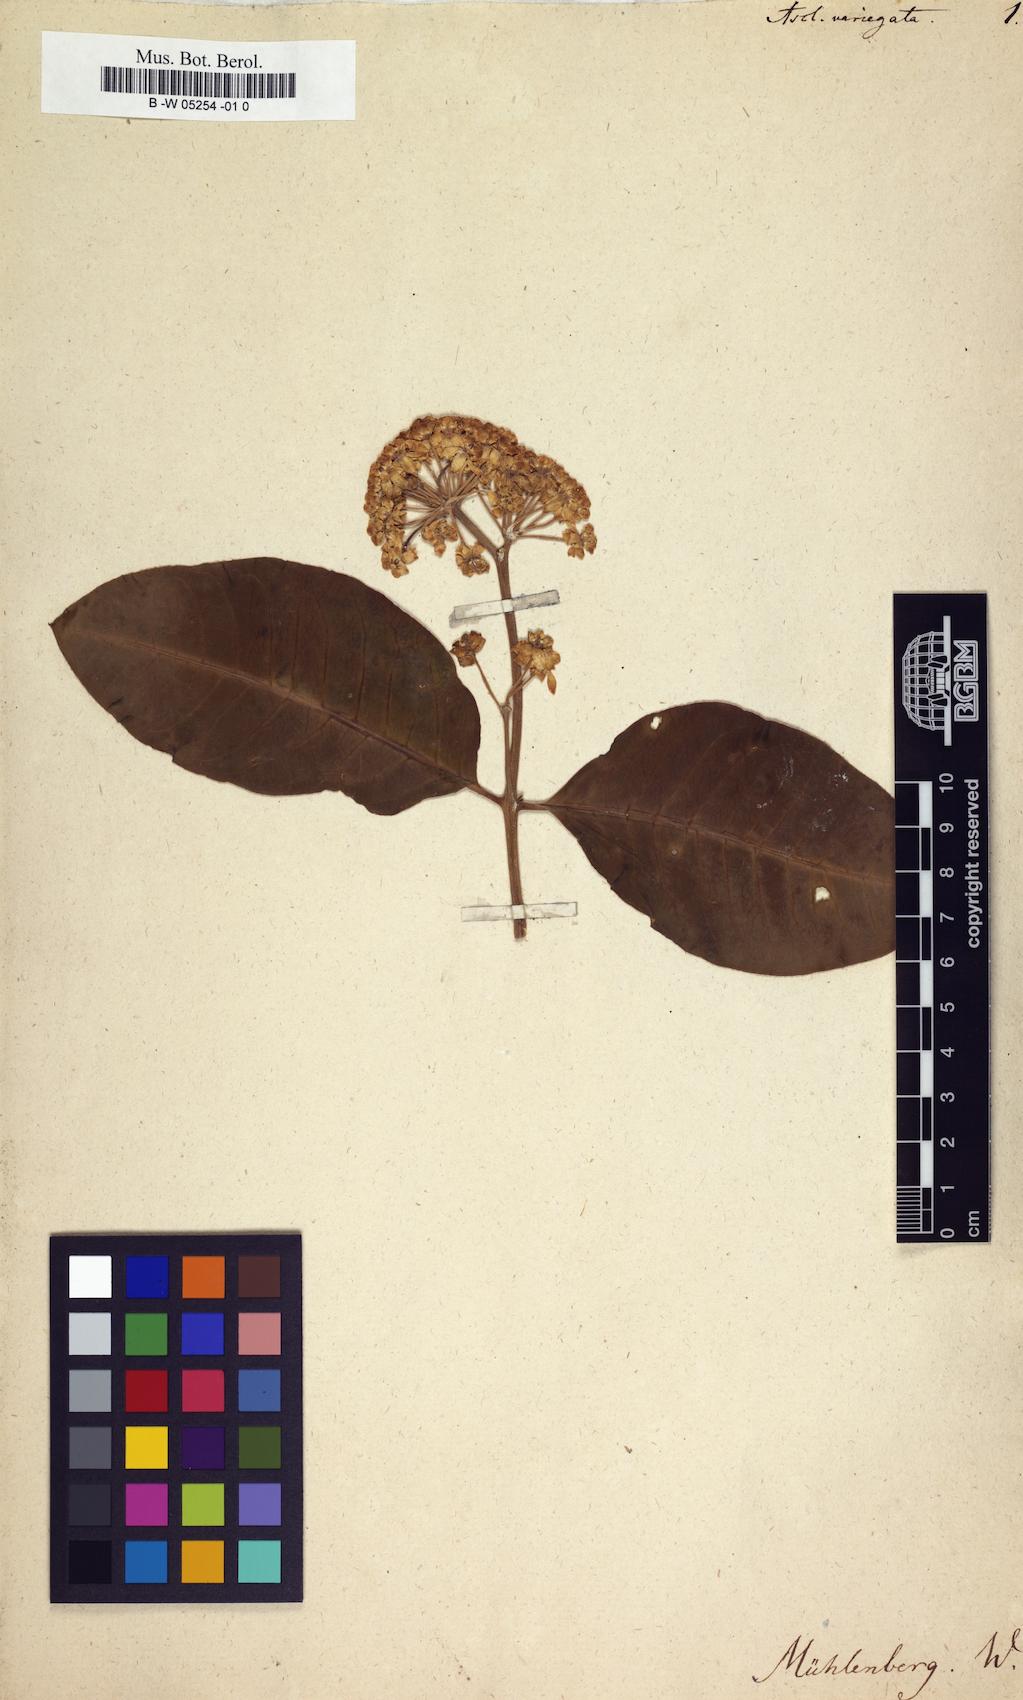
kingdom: Plantae
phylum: Tracheophyta
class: Magnoliopsida
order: Gentianales
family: Apocynaceae
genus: Asclepias
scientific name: Asclepias variegata
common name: Variegated milkweed
